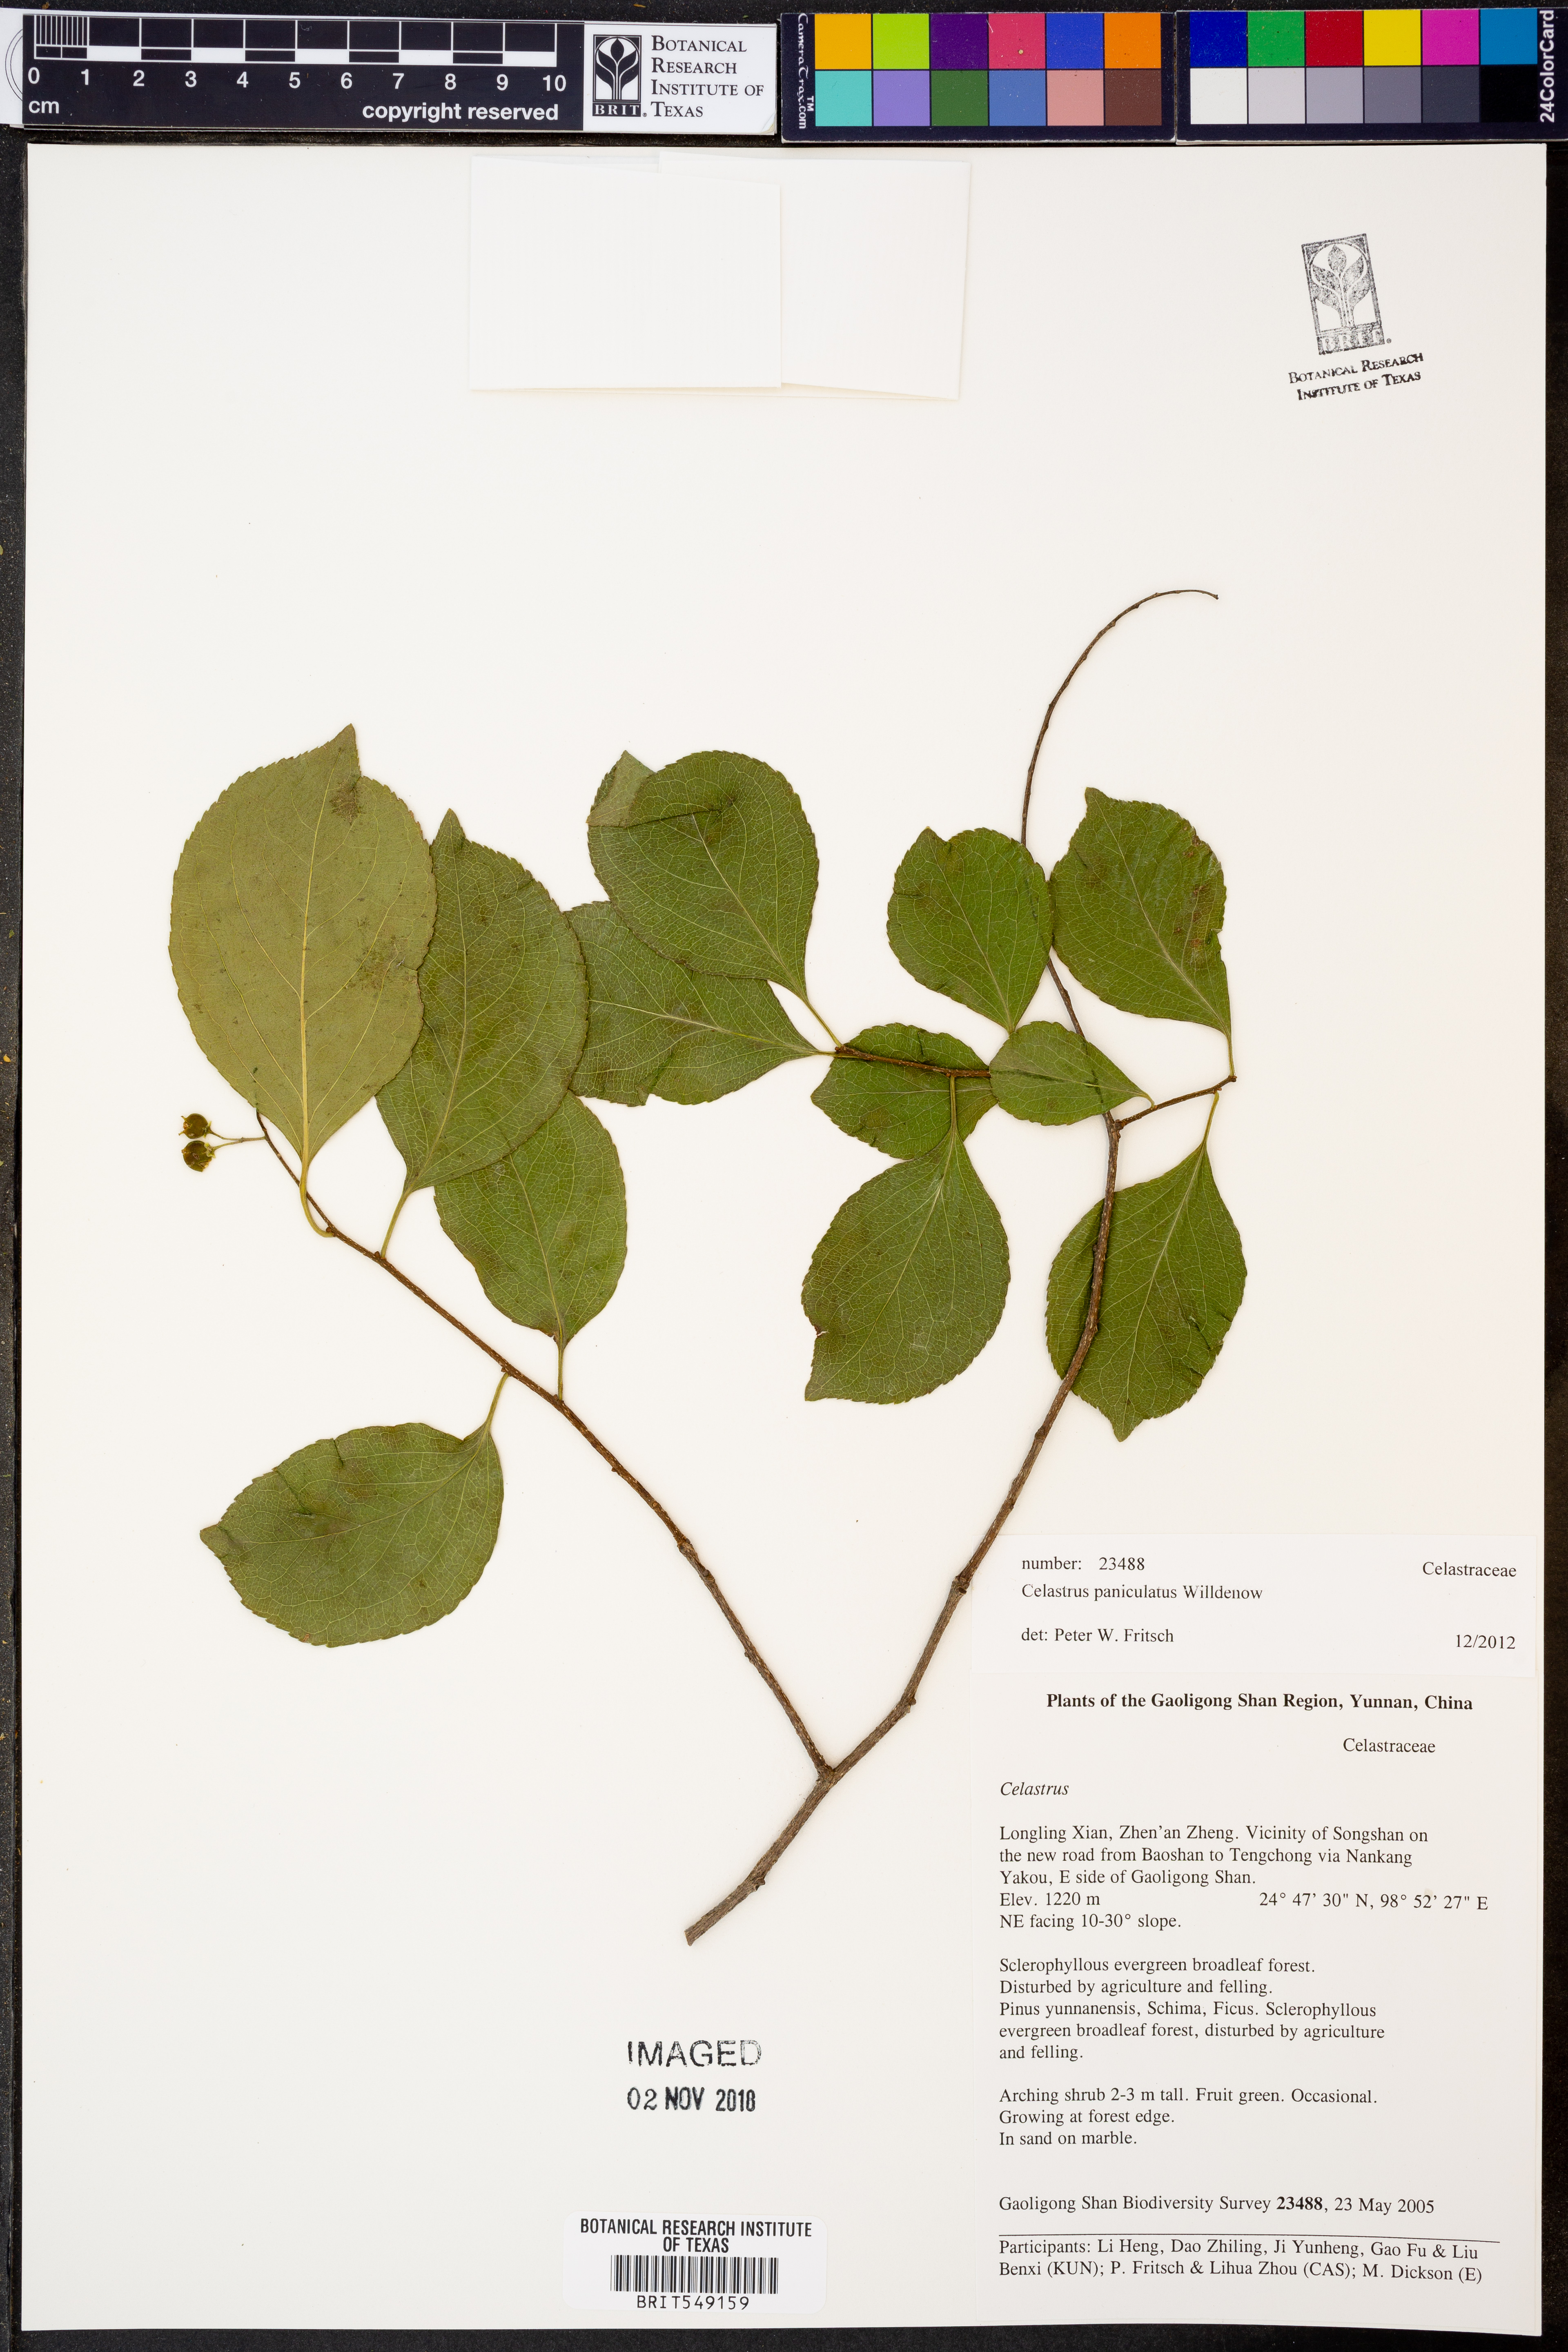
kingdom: Plantae
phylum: Tracheophyta
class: Magnoliopsida
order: Celastrales
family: Celastraceae
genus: Celastrus
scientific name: Celastrus paniculatus
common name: Oriental bittersweet; staff vine
